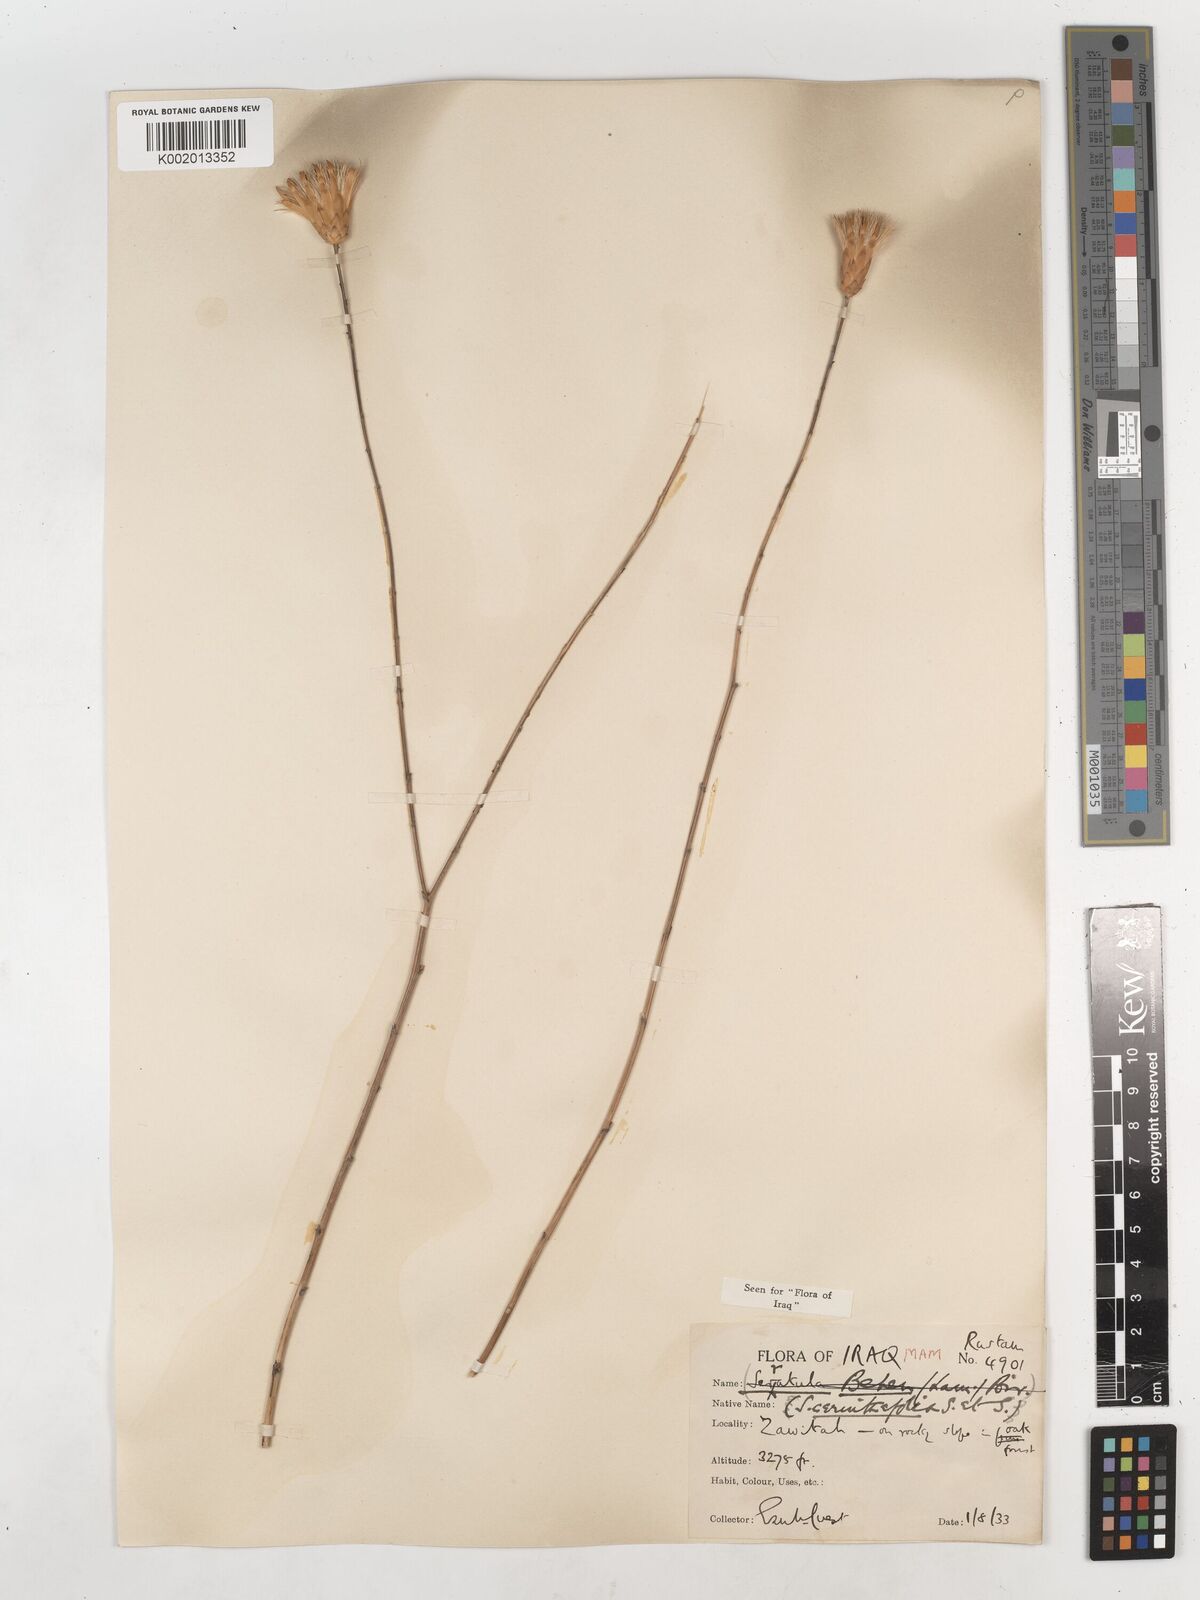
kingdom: Plantae
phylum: Tracheophyta
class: Magnoliopsida
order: Asterales
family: Asteraceae
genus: Klasea
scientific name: Klasea cerinthifolia
